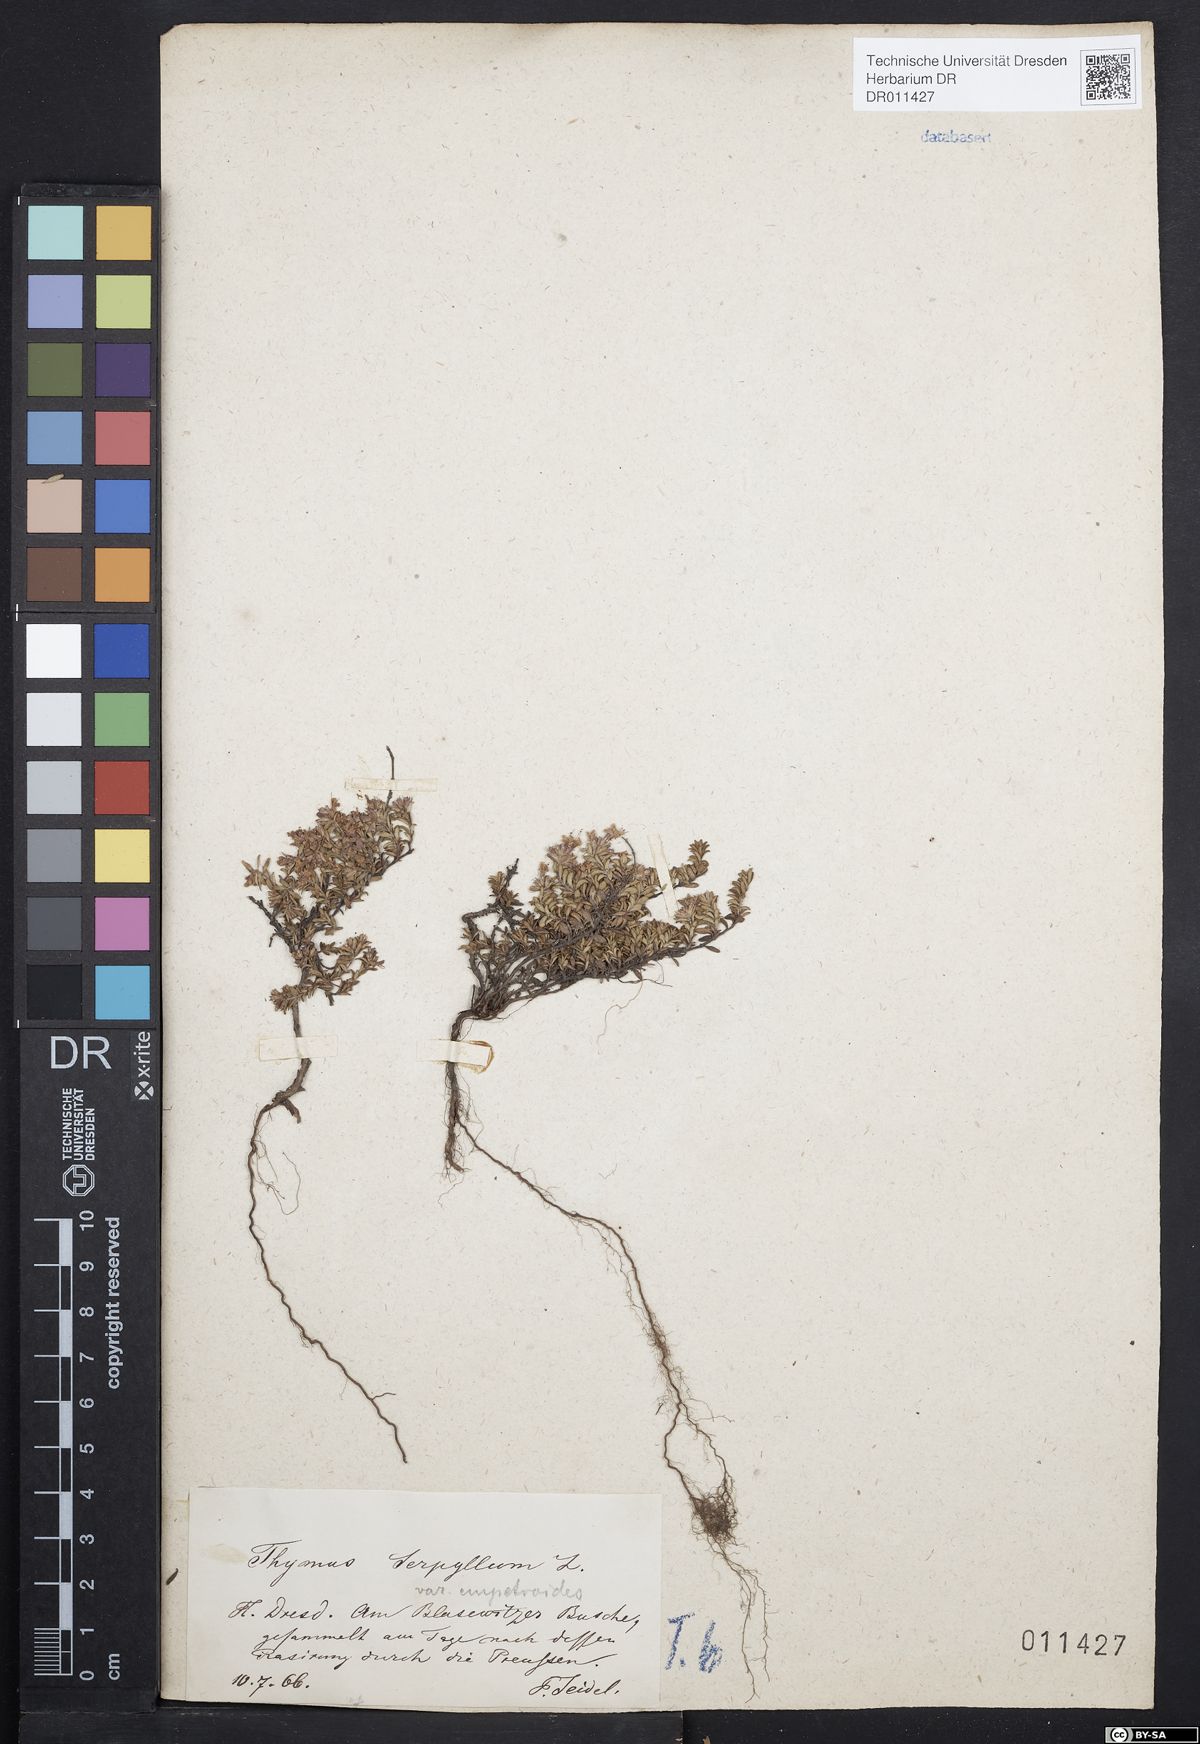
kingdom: Plantae
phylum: Tracheophyta
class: Magnoliopsida
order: Lamiales
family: Lamiaceae
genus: Thymus
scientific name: Thymus serpyllum
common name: Breckland thyme
